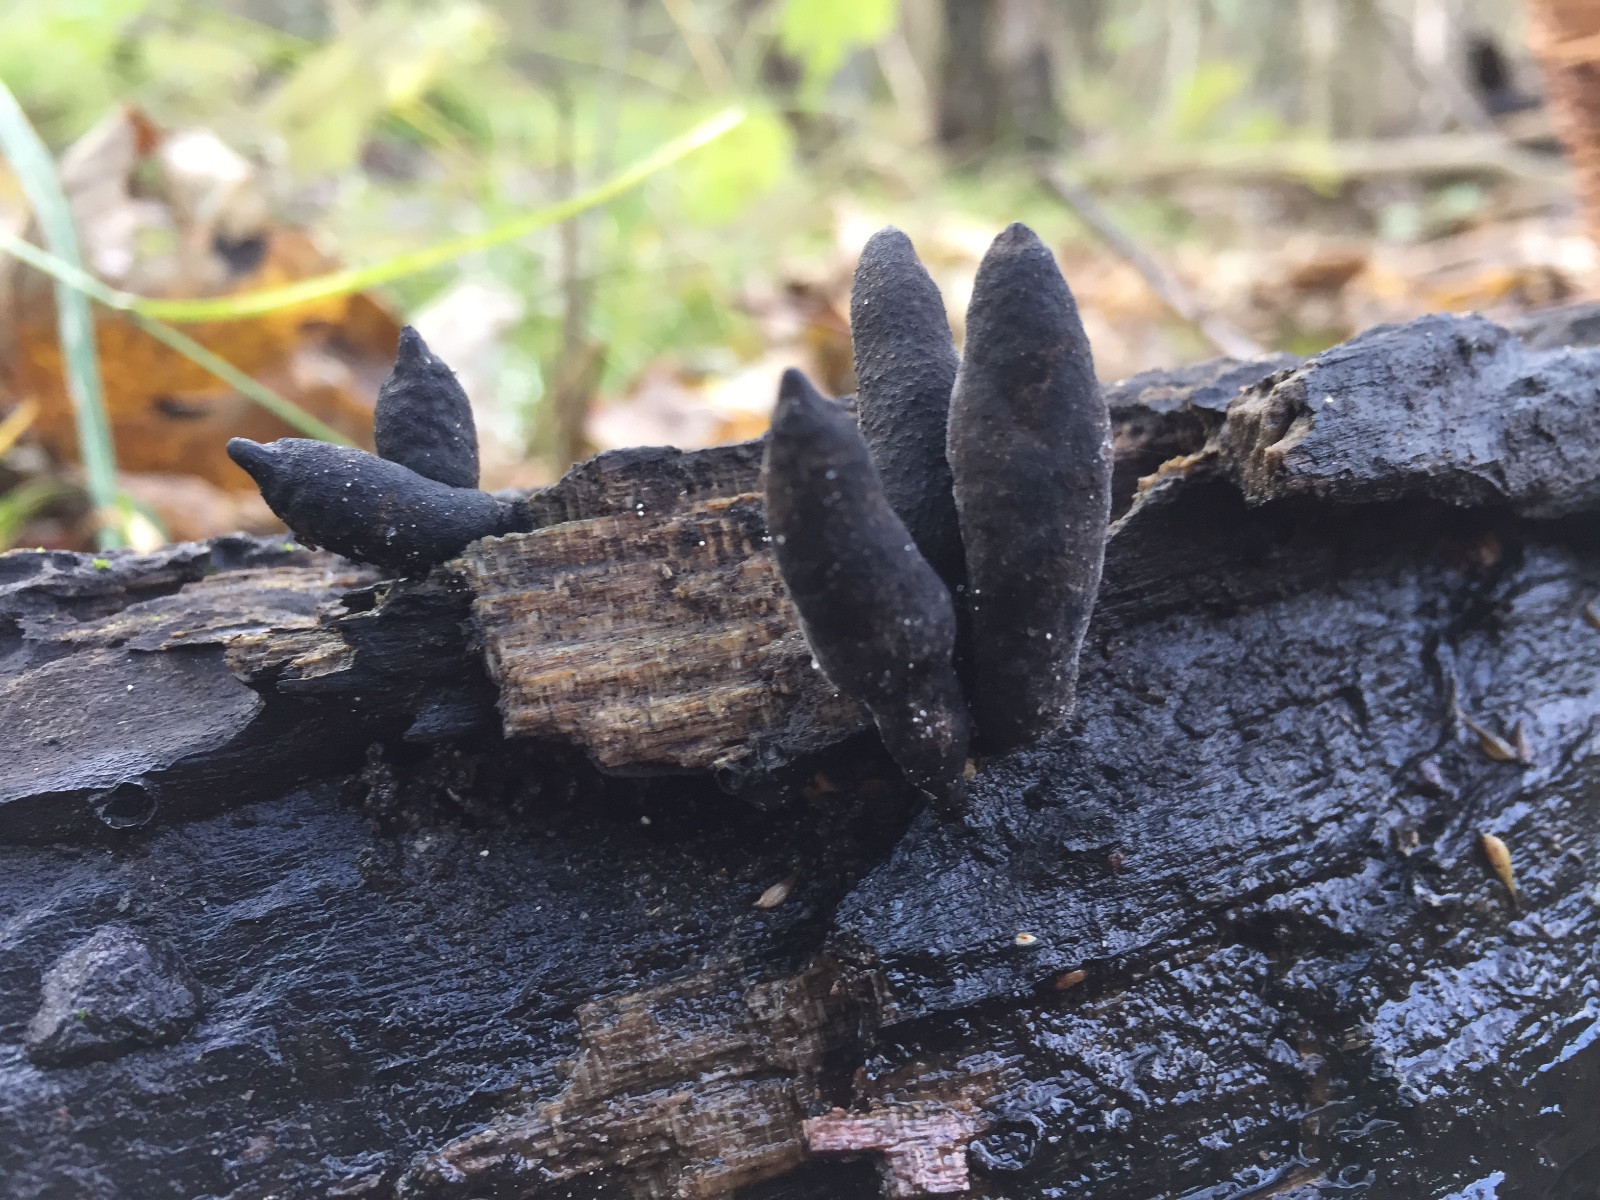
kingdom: Fungi
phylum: Ascomycota
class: Sordariomycetes
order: Xylariales
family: Xylariaceae
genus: Xylaria
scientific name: Xylaria longipes
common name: slank stødsvamp
